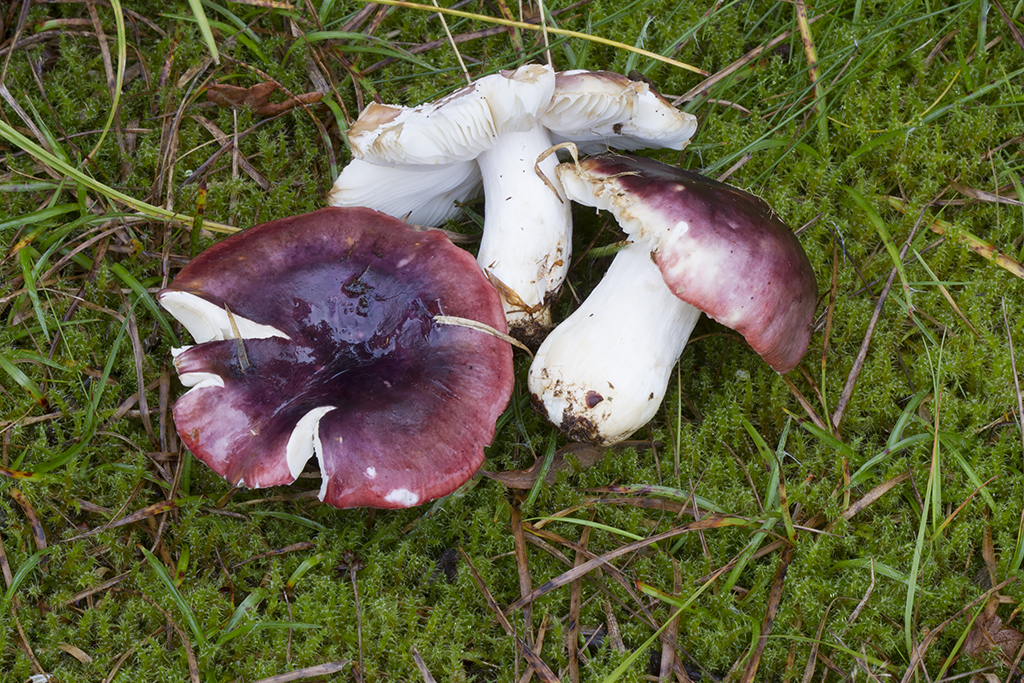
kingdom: Fungi
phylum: Basidiomycota
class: Agaricomycetes
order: Russulales
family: Russulaceae
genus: Russula
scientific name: Russula atropurpurea
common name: purpurbroget skørhat
